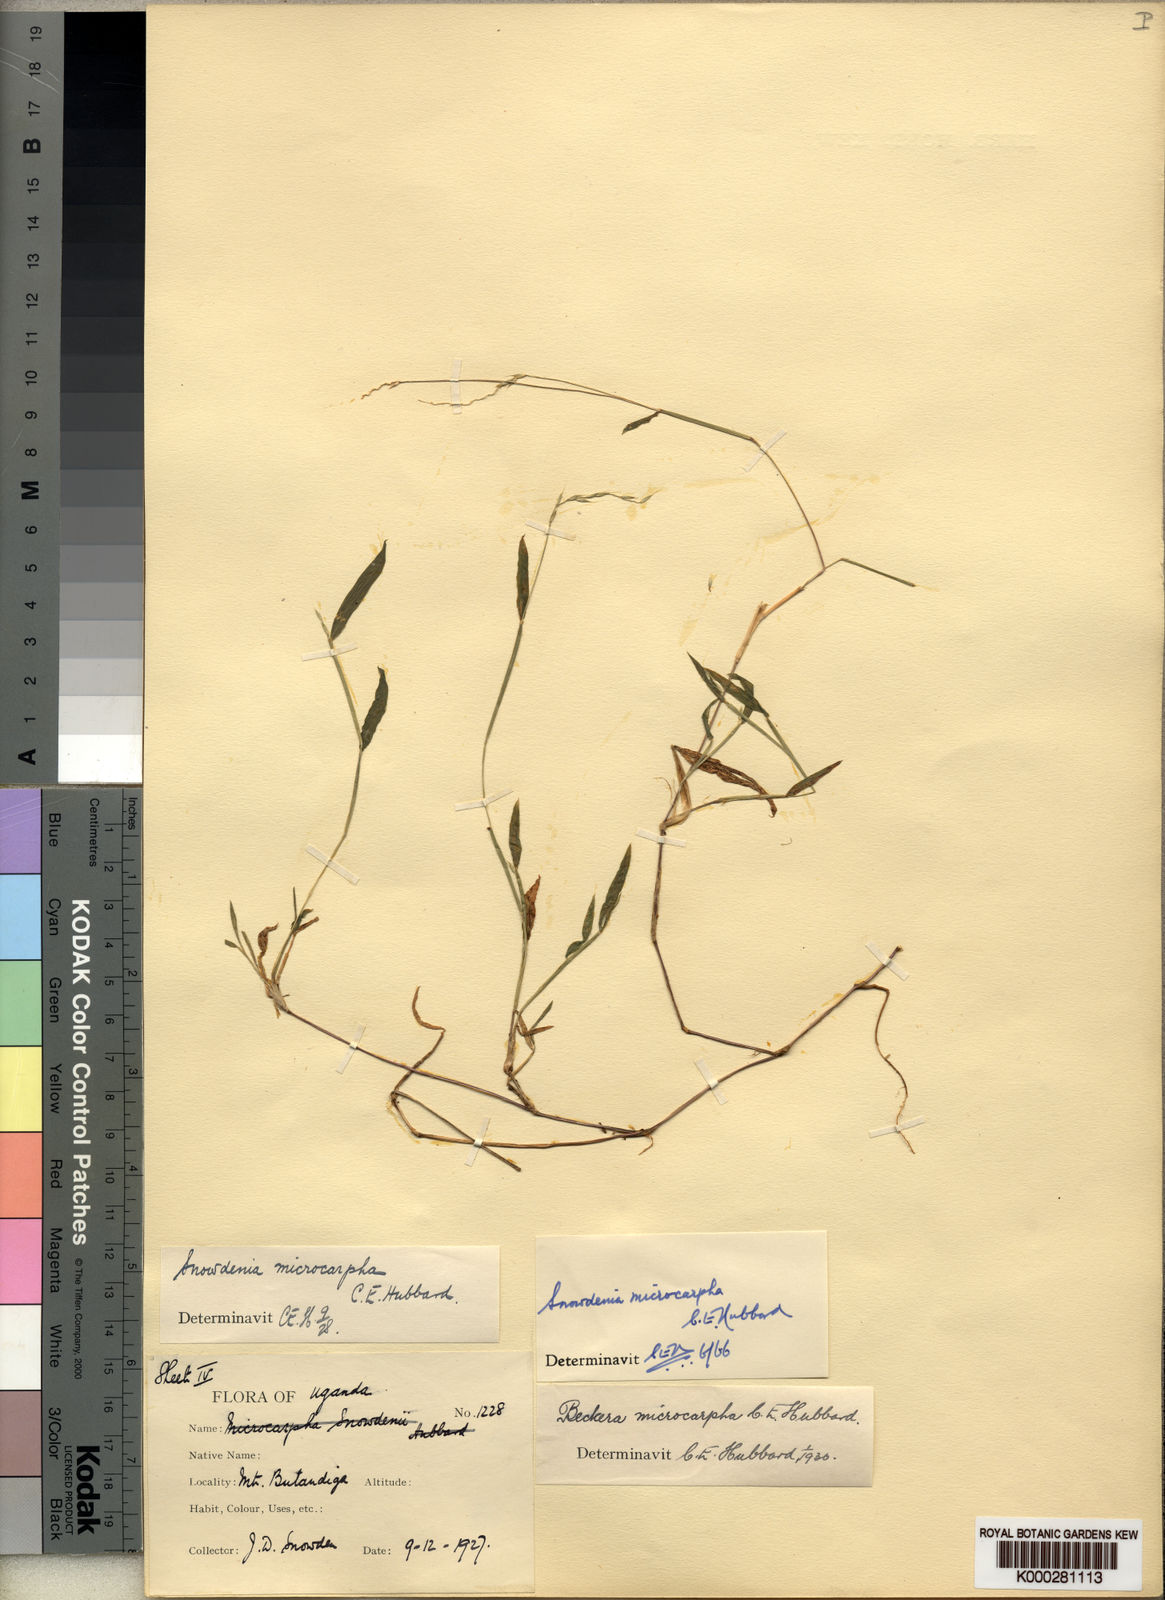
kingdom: Plantae
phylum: Tracheophyta
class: Liliopsida
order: Poales
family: Poaceae
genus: Snowdenia
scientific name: Snowdenia microcarpha
